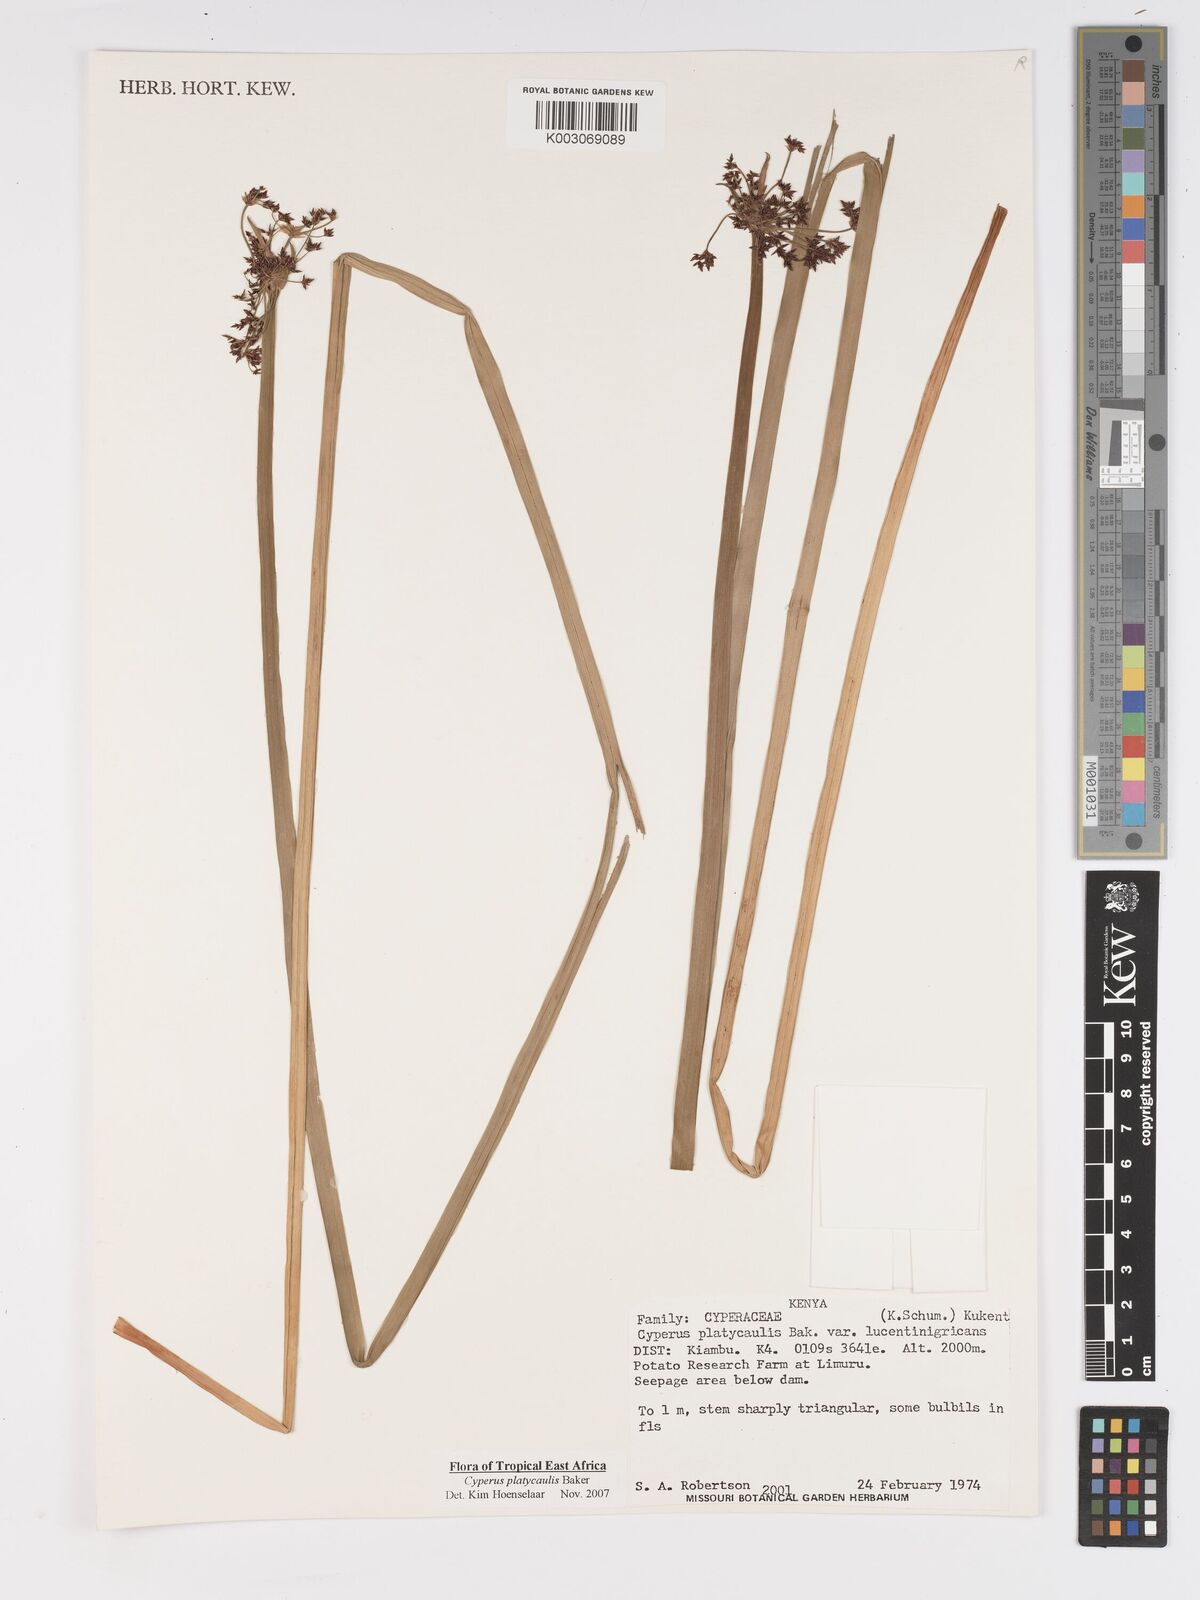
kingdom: Plantae
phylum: Tracheophyta
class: Liliopsida
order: Poales
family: Cyperaceae
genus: Cyperus
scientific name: Cyperus platycaulis
